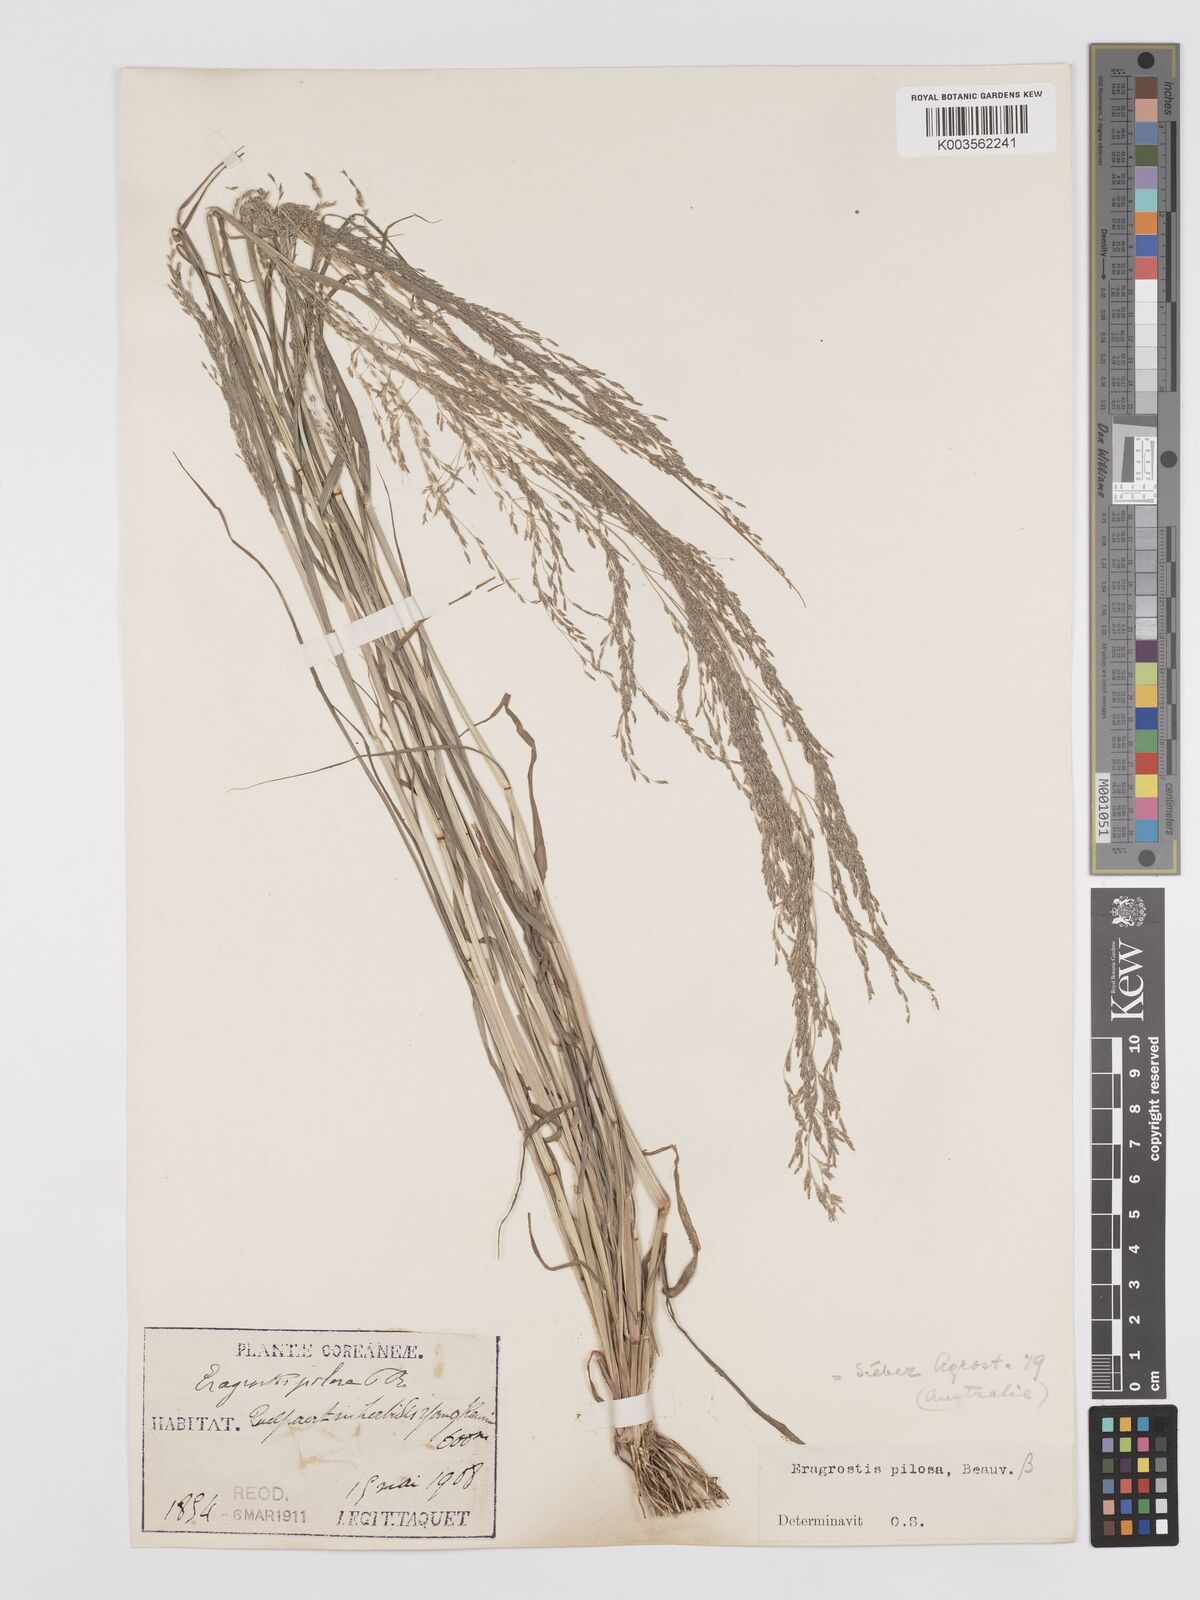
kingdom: Plantae
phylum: Tracheophyta
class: Liliopsida
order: Poales
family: Poaceae
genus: Eragrostis
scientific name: Eragrostis pilosa
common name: Indian lovegrass
